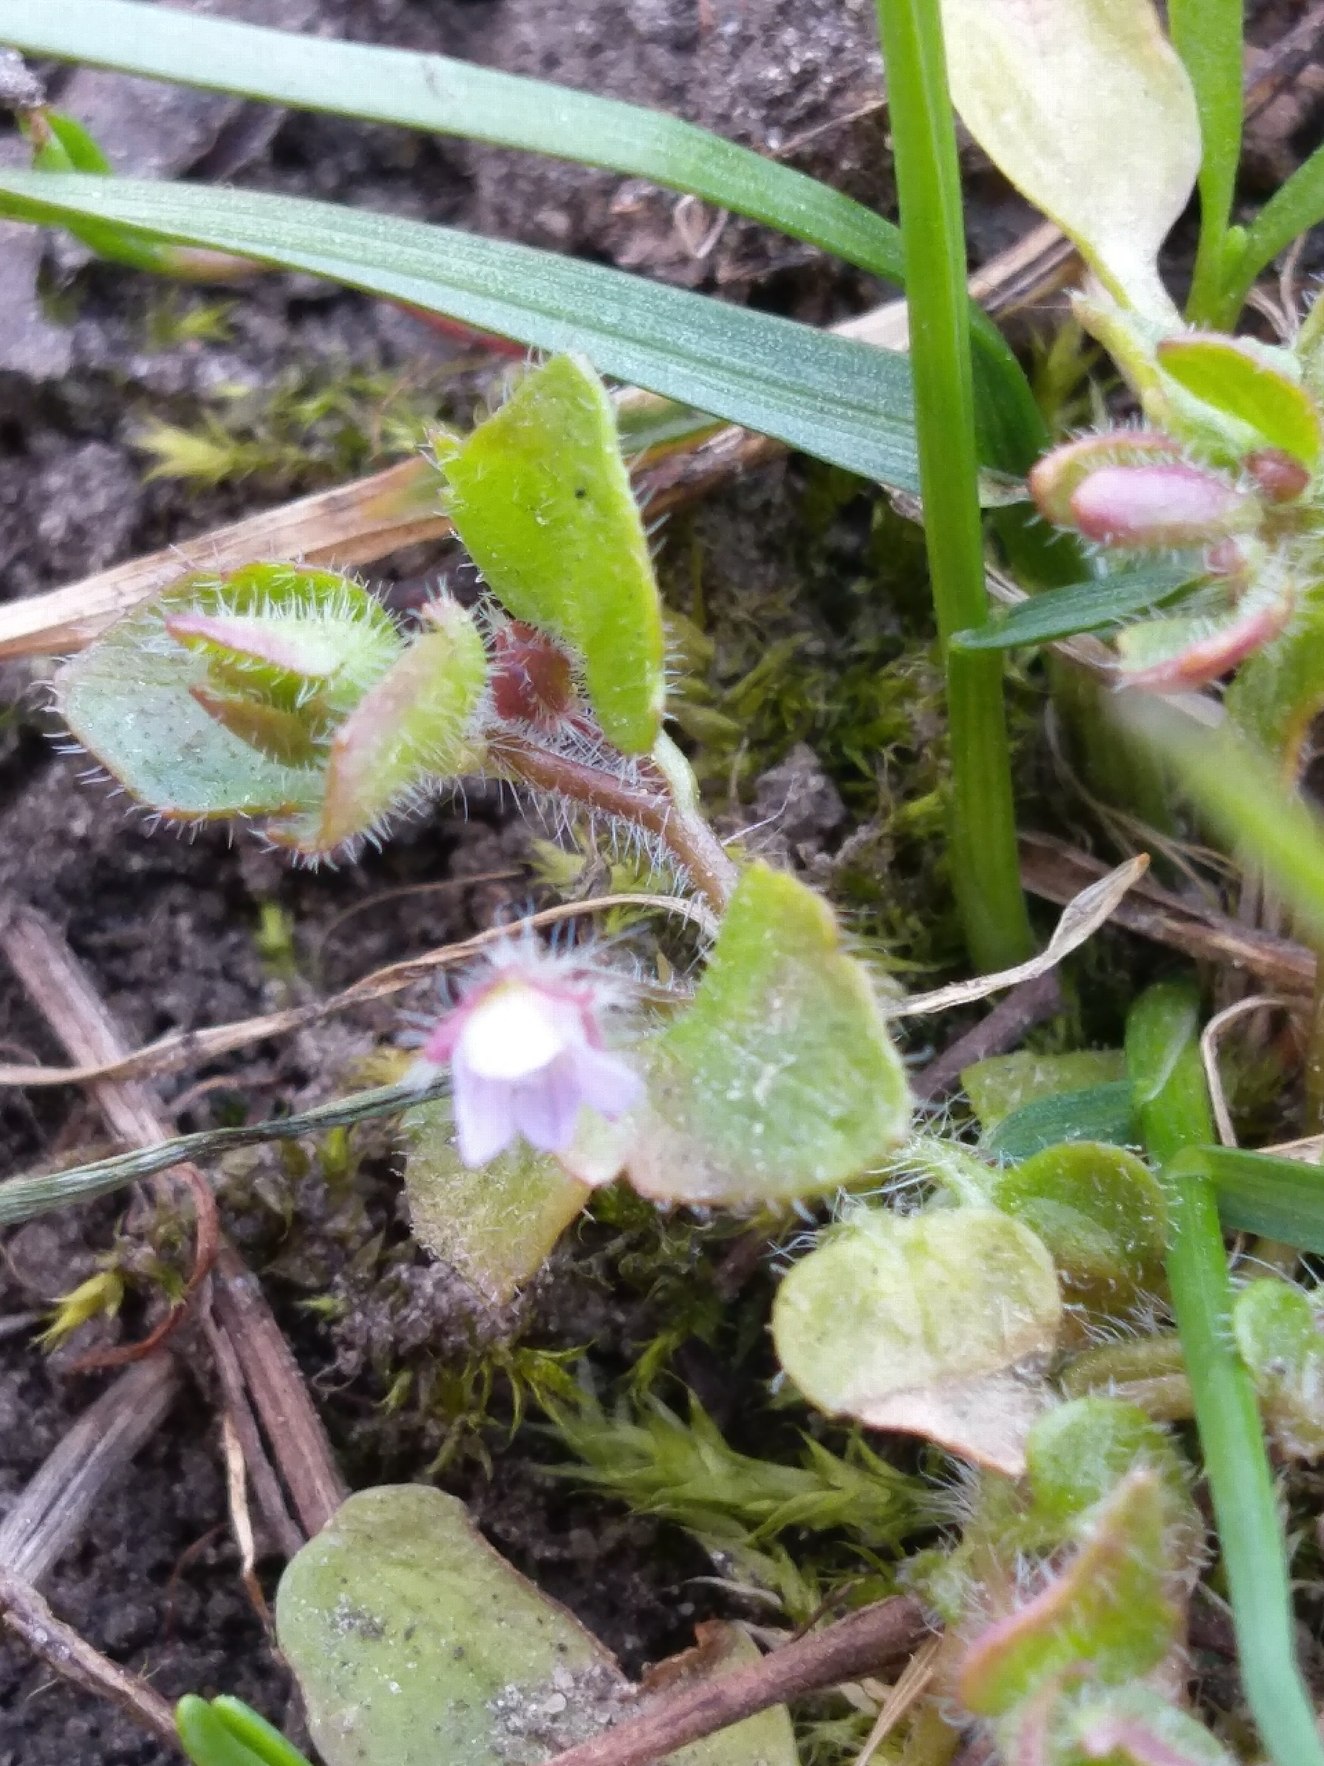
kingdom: Plantae
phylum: Tracheophyta
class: Magnoliopsida
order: Lamiales
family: Plantaginaceae
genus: Veronica
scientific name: Veronica hederifolia
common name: Vedbend-ærenpris
